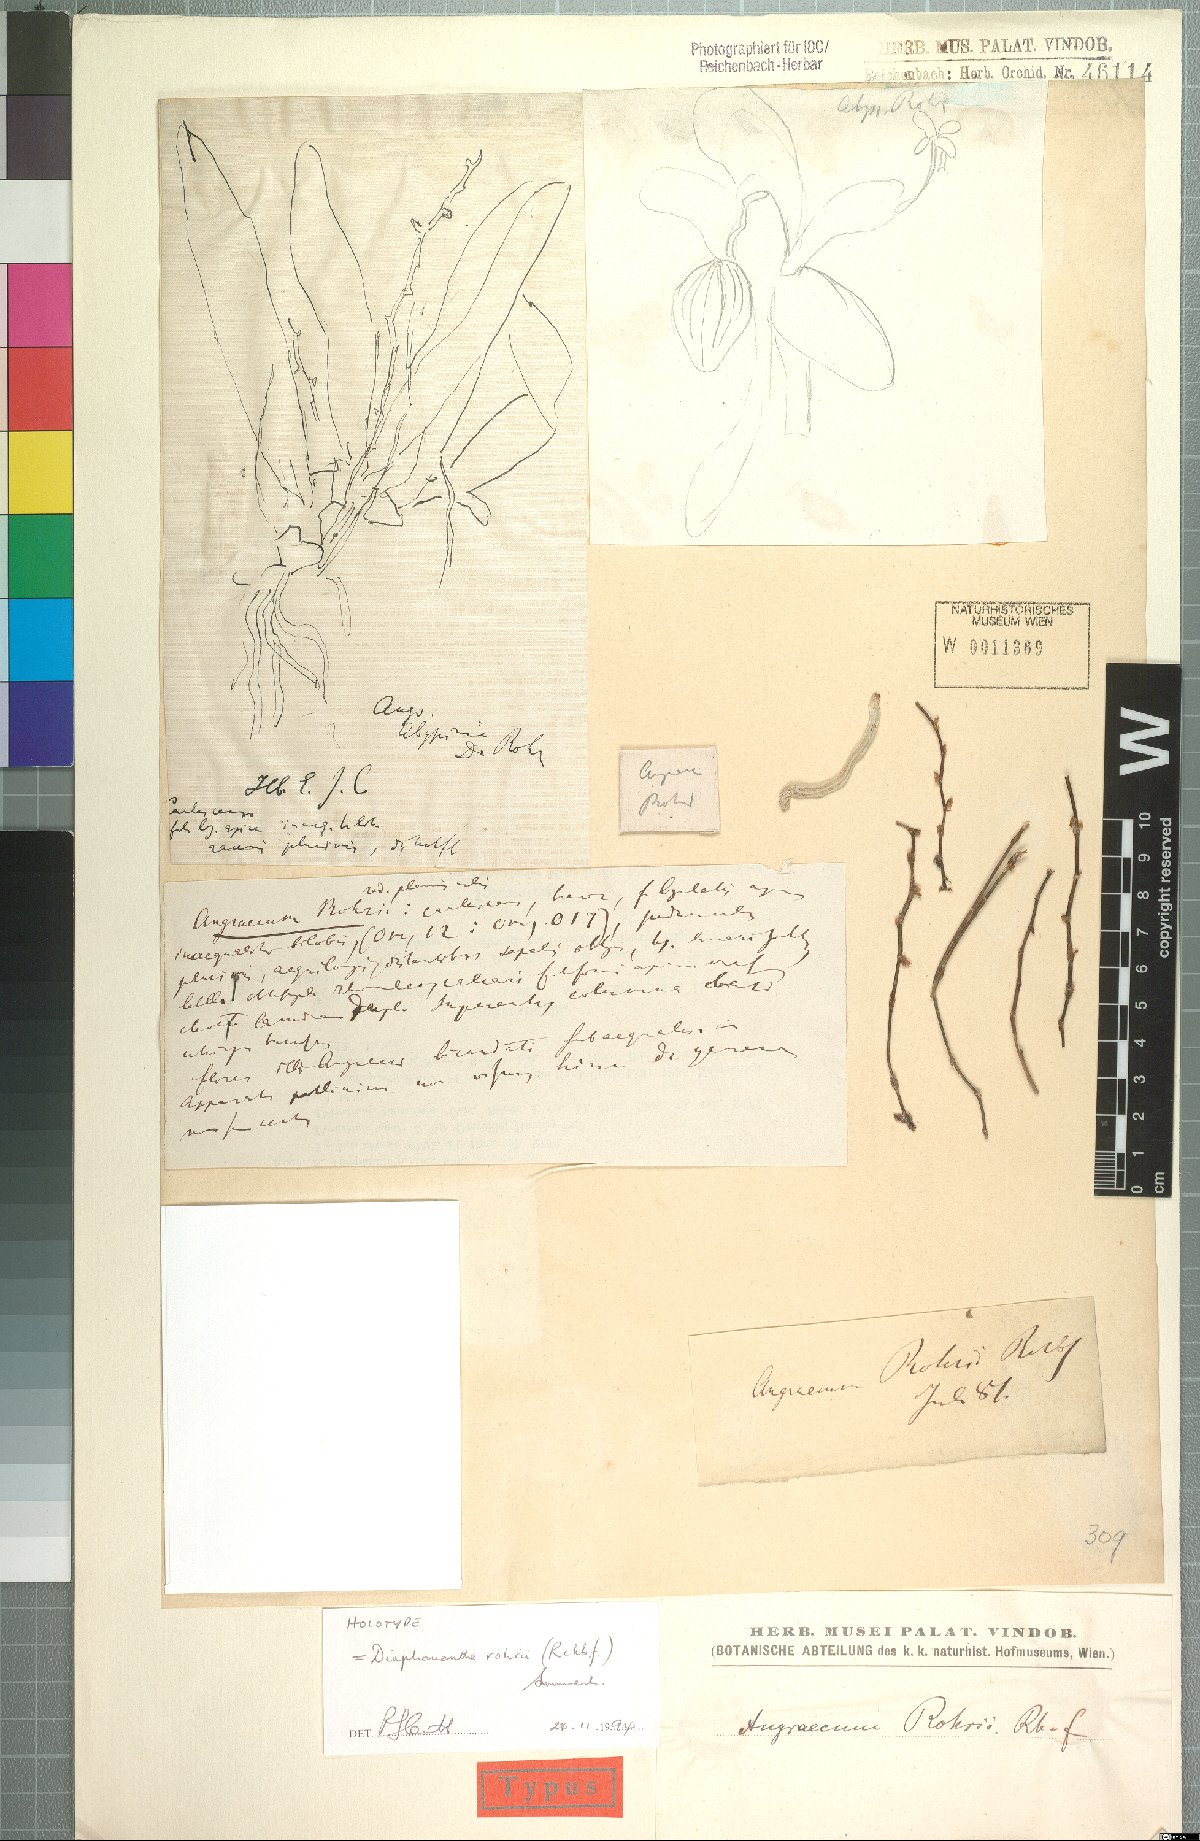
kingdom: Plantae
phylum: Tracheophyta
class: Liliopsida
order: Asparagales
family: Orchidaceae
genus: Kylicanthe
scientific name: Kylicanthe rohrii
